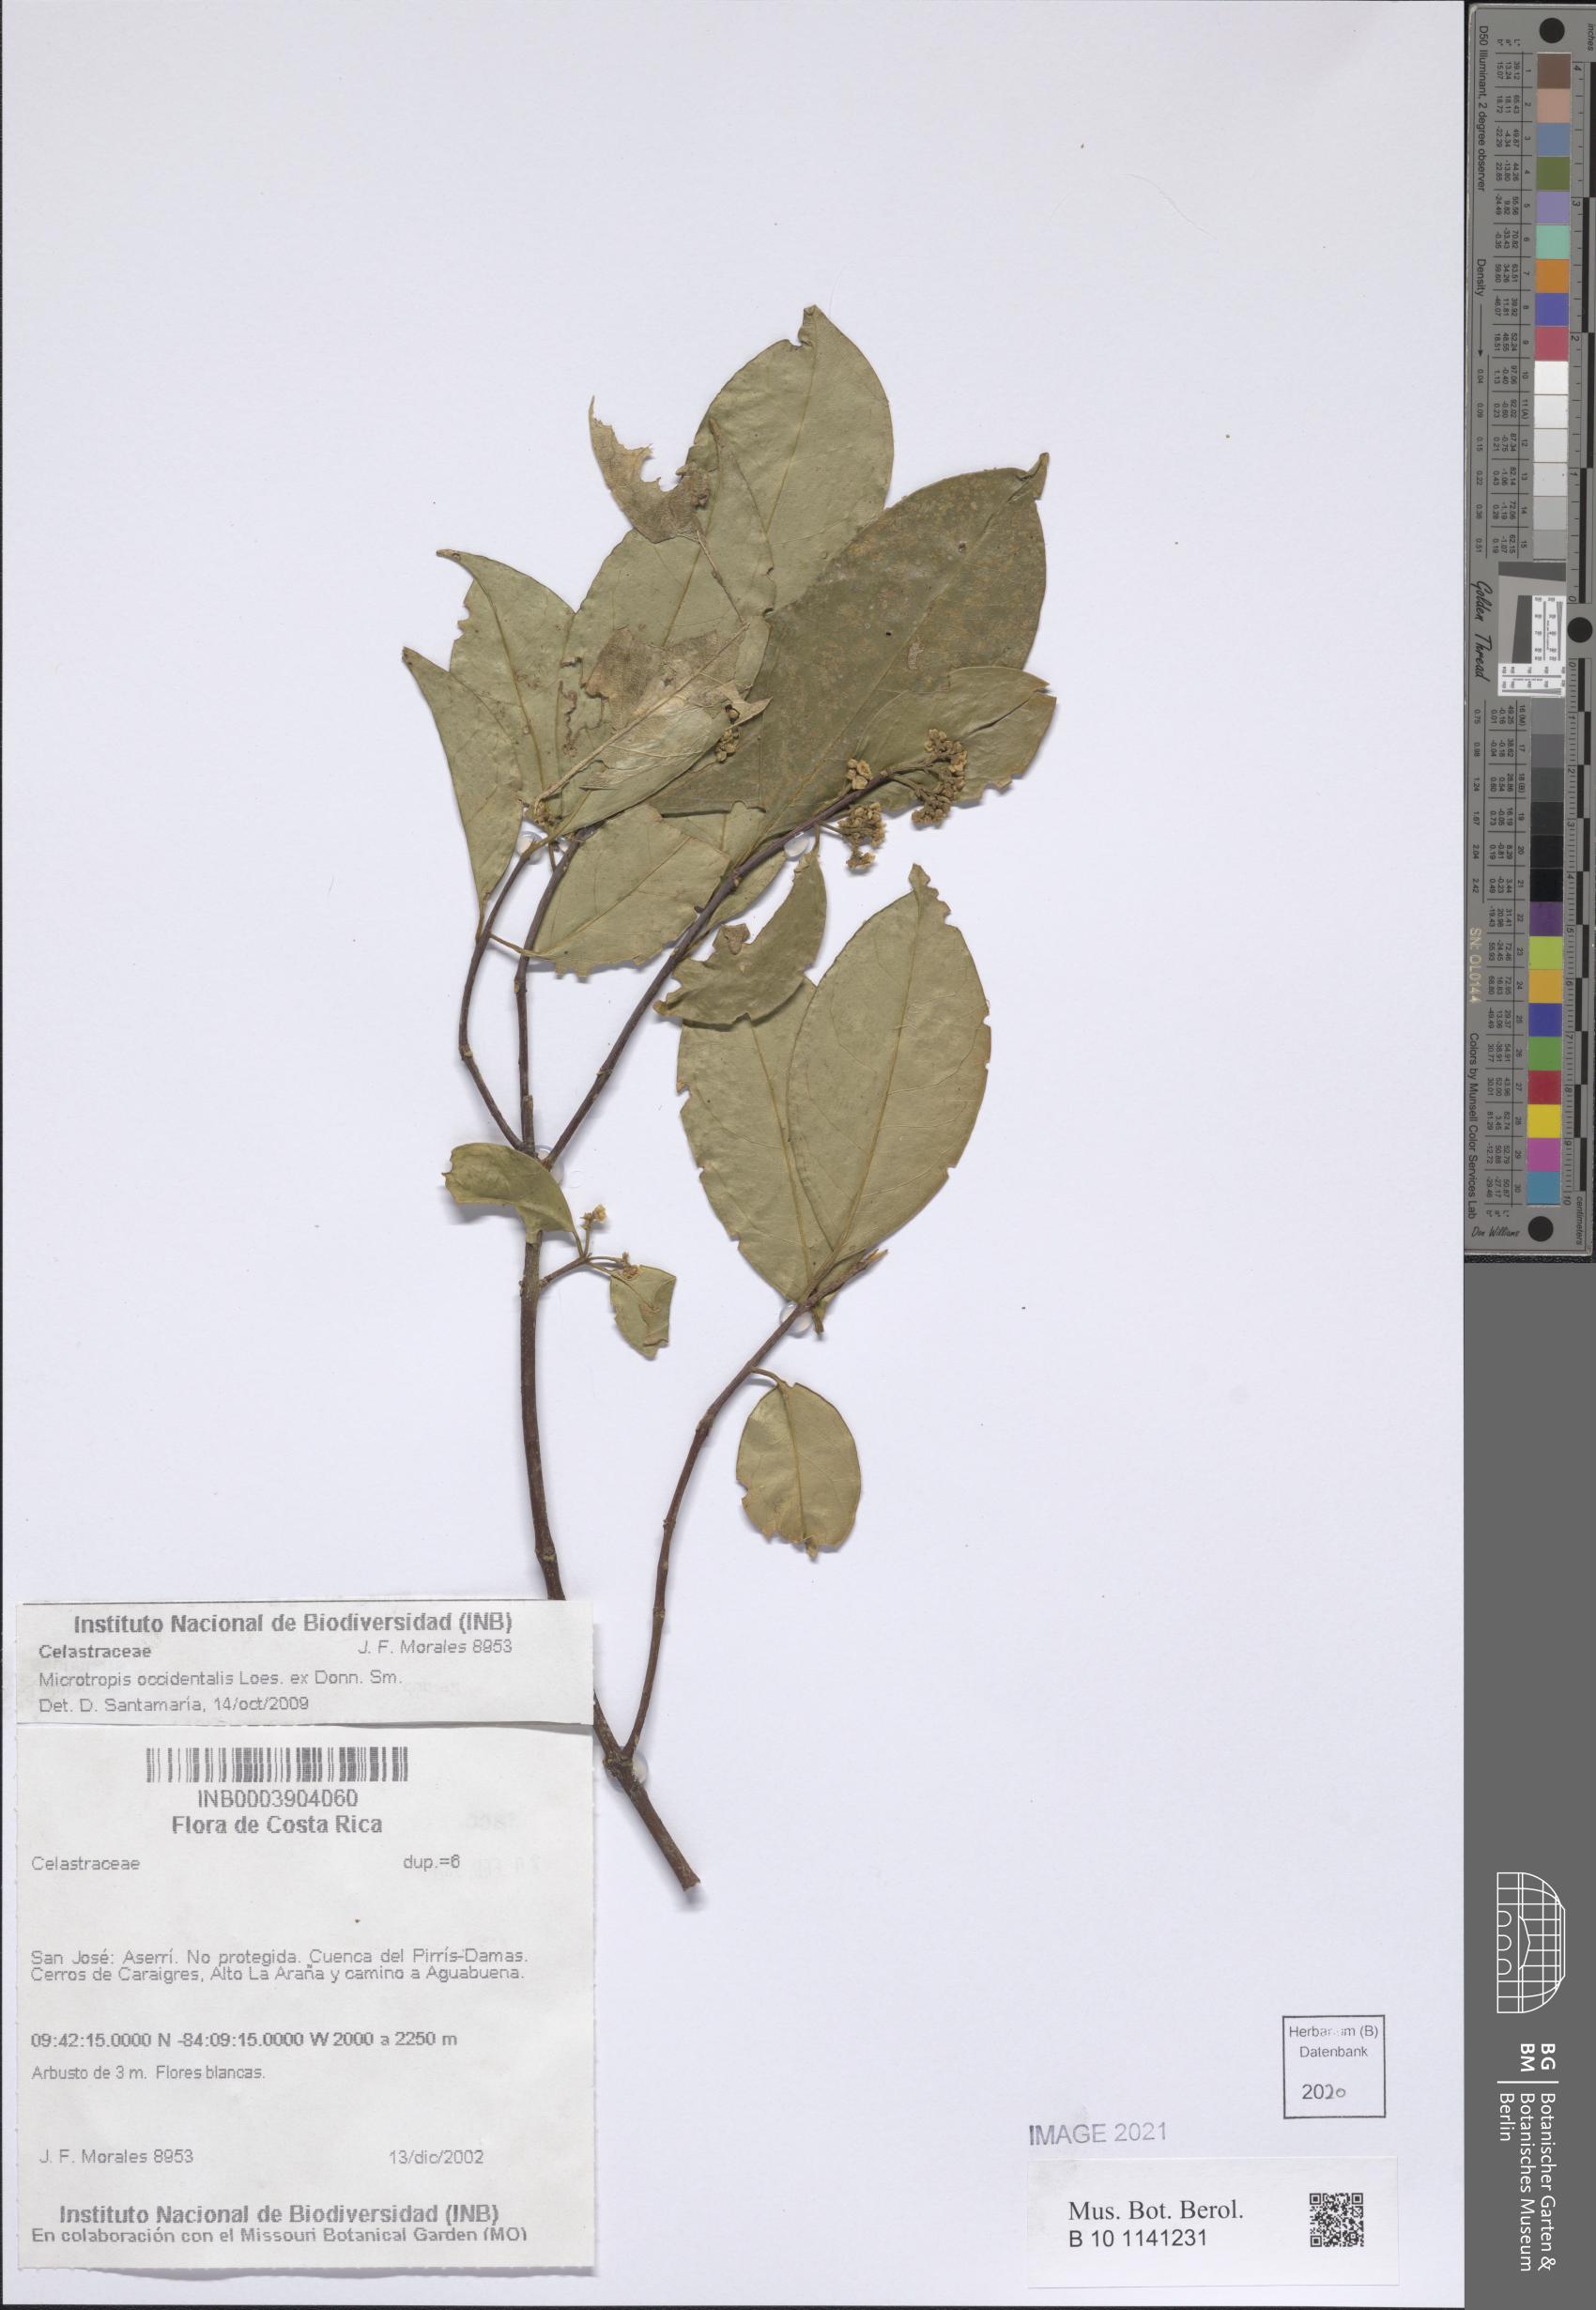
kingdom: Plantae
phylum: Tracheophyta
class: Magnoliopsida
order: Celastrales
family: Celastraceae
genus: Quetzalia
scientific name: Quetzalia occidentalis
